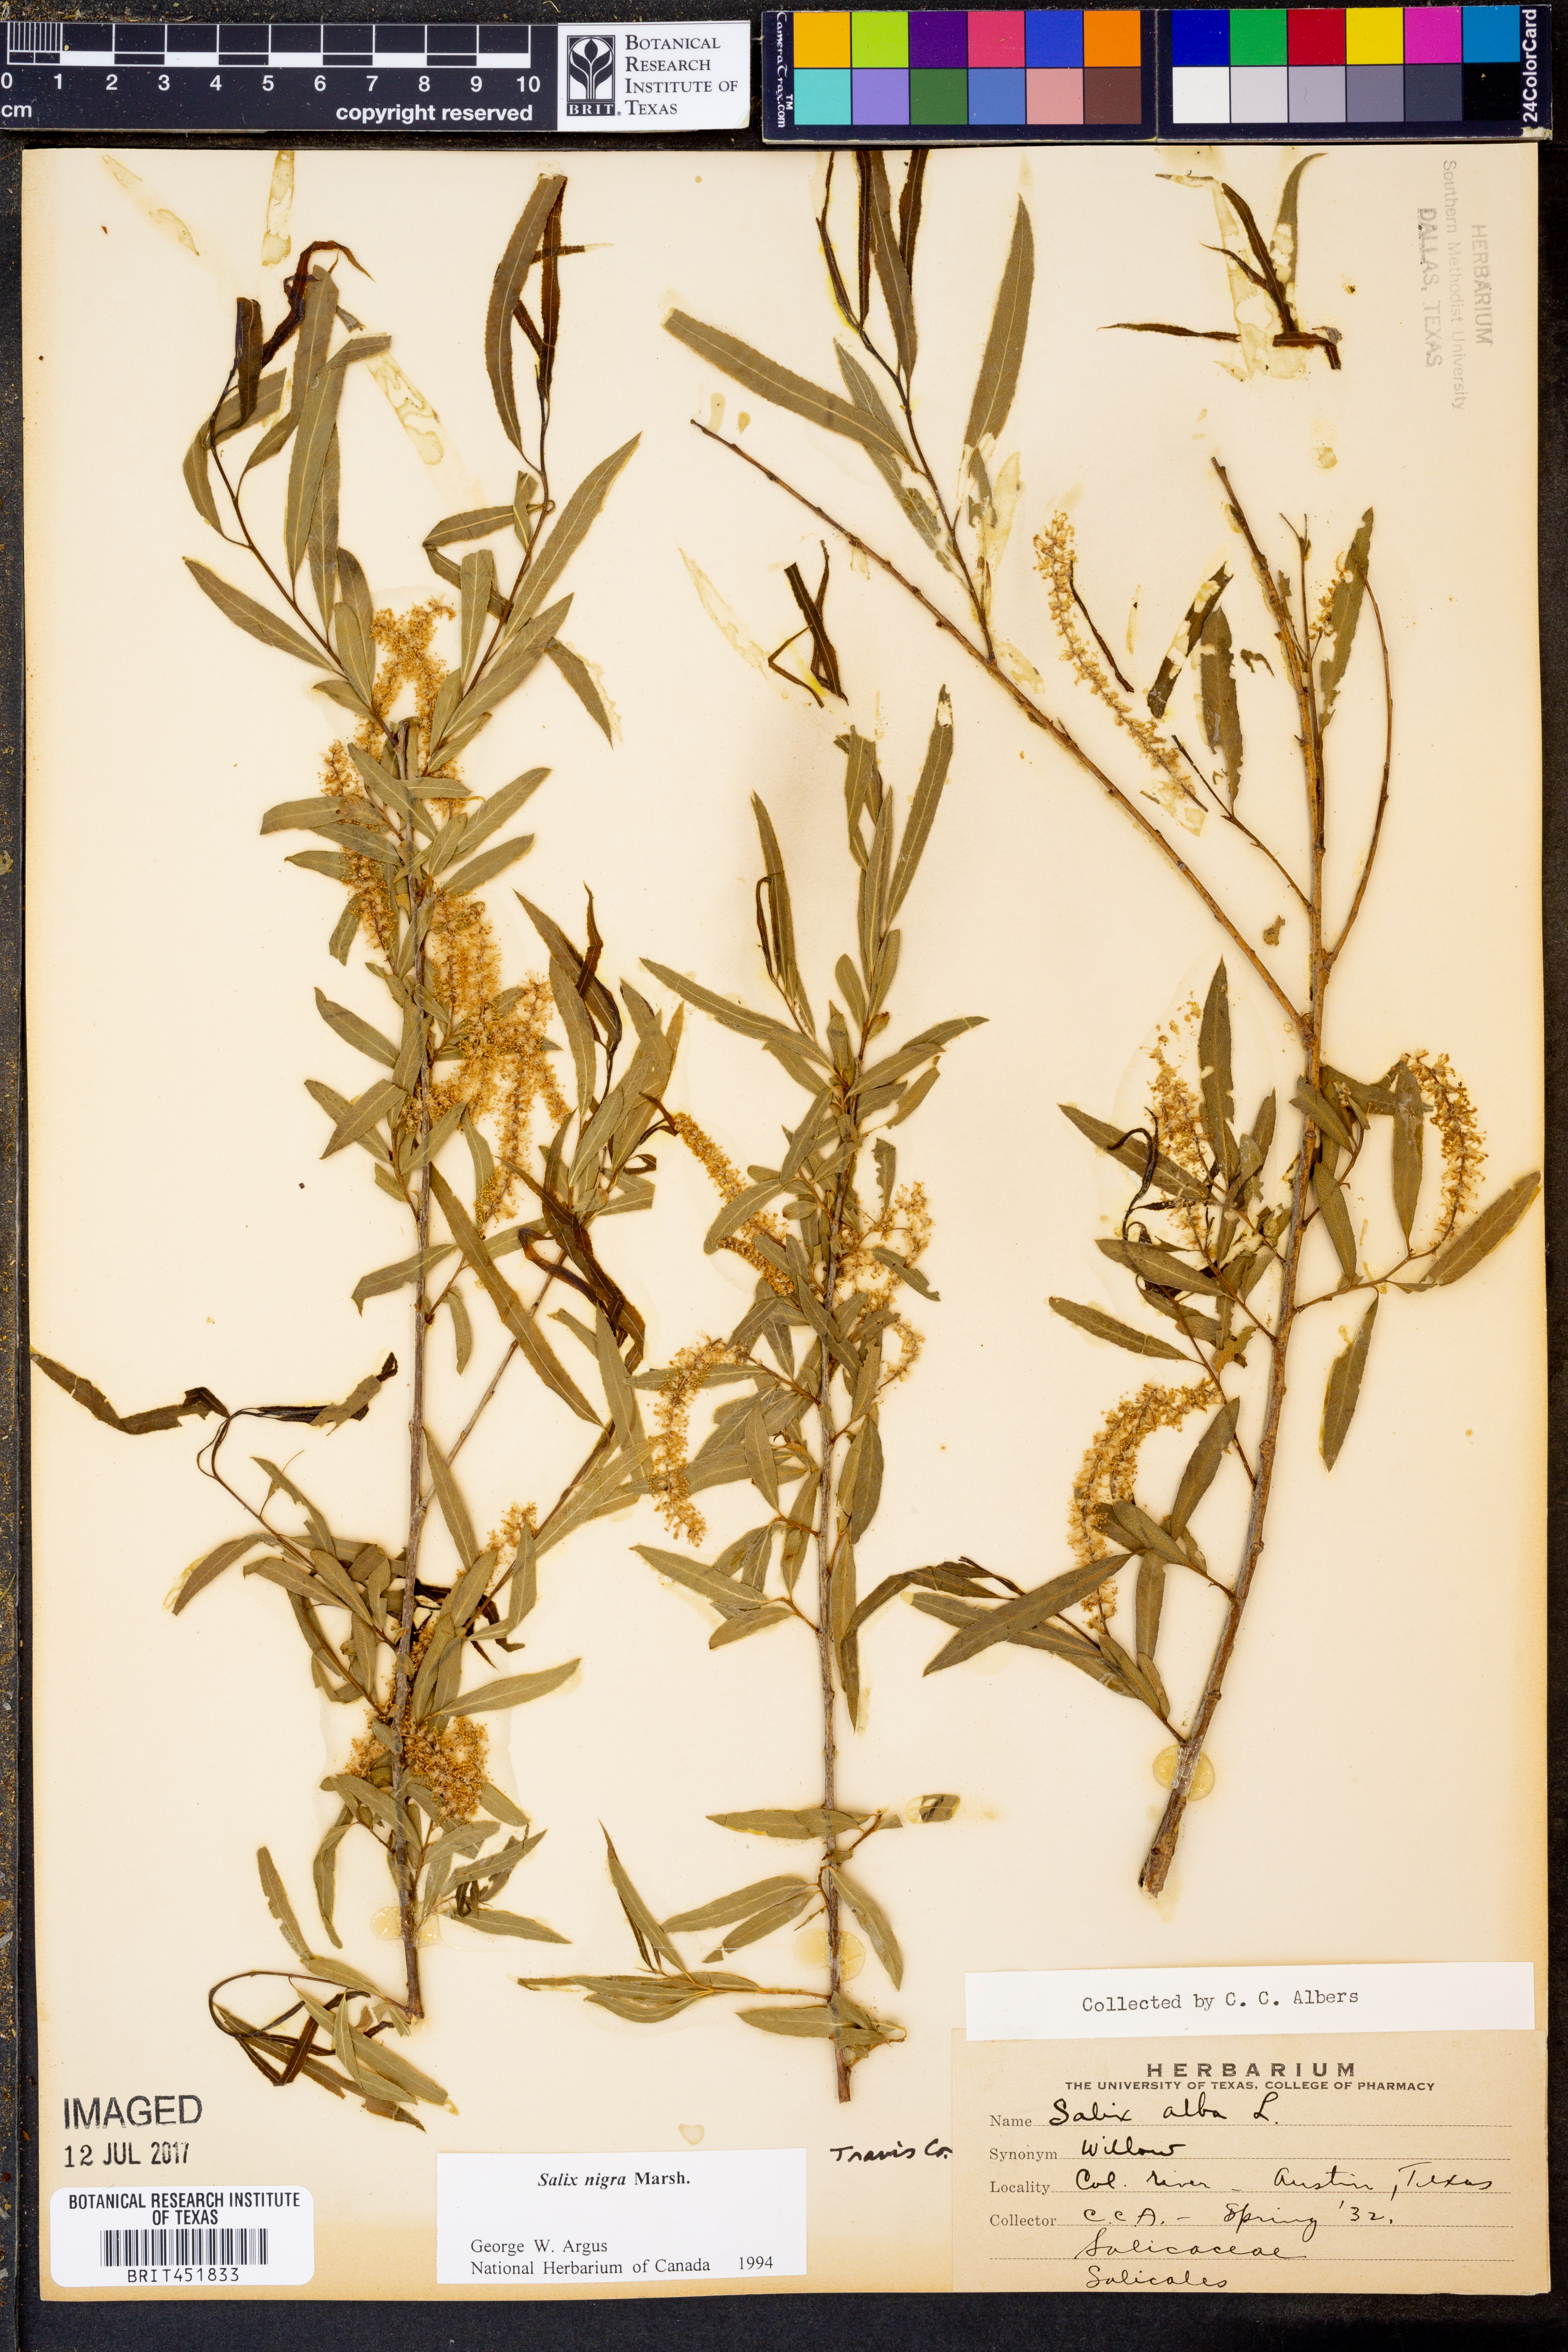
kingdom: Plantae
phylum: Tracheophyta
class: Magnoliopsida
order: Malpighiales
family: Salicaceae
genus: Salix
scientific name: Salix nigra
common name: Black willow
